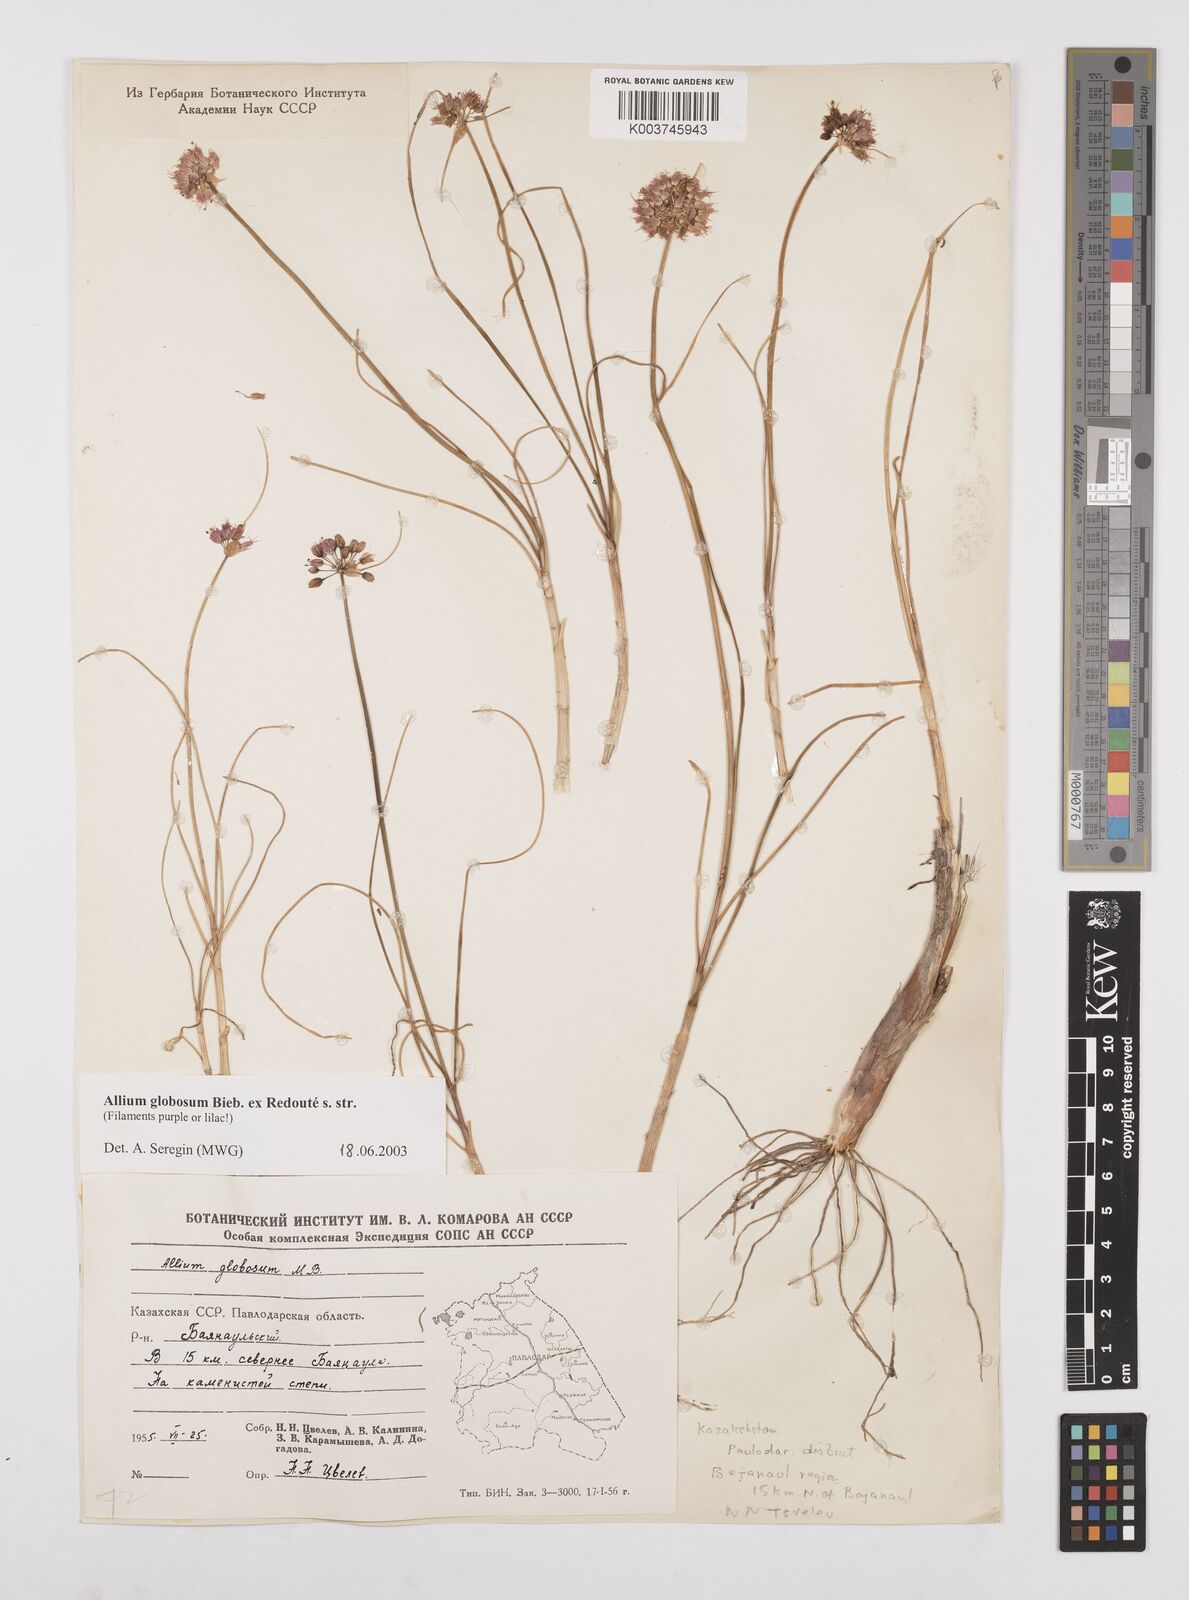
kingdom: Plantae
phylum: Tracheophyta
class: Liliopsida
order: Asparagales
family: Amaryllidaceae
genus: Allium
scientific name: Allium saxatile
